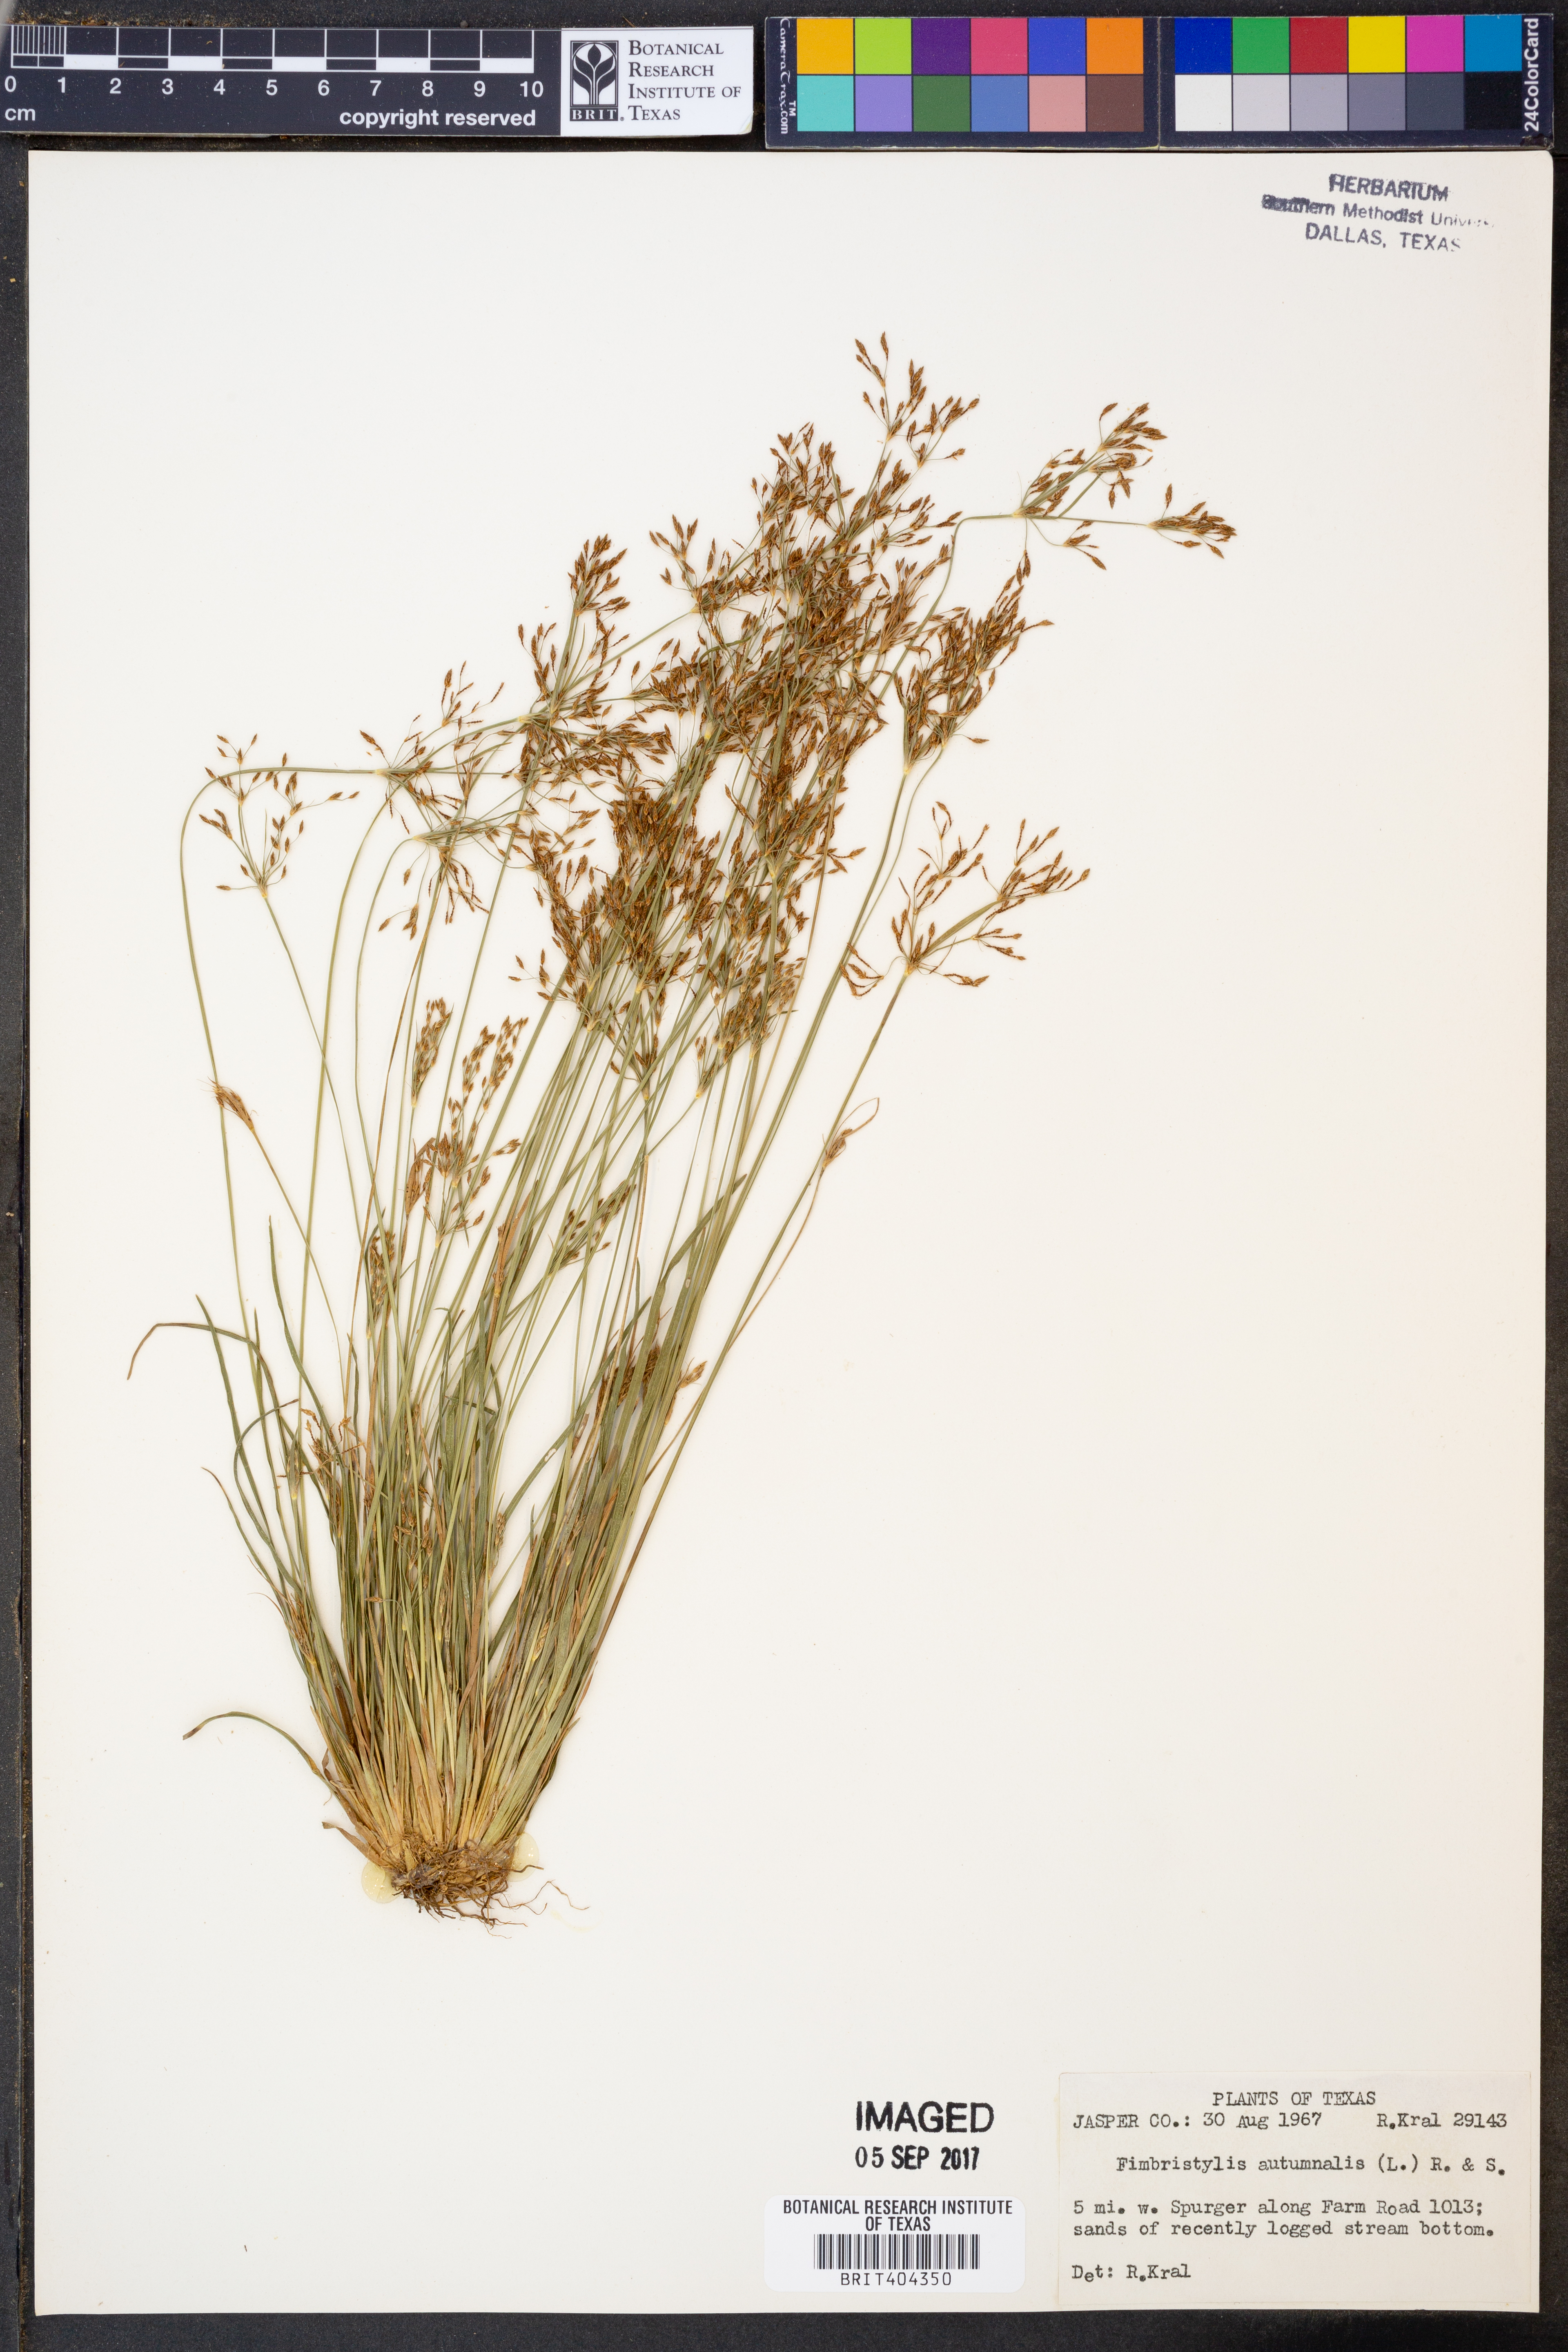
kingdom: Plantae
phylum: Tracheophyta
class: Liliopsida
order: Poales
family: Cyperaceae
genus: Fimbristylis
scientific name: Fimbristylis autumnalis
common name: Slender fimbristylis
